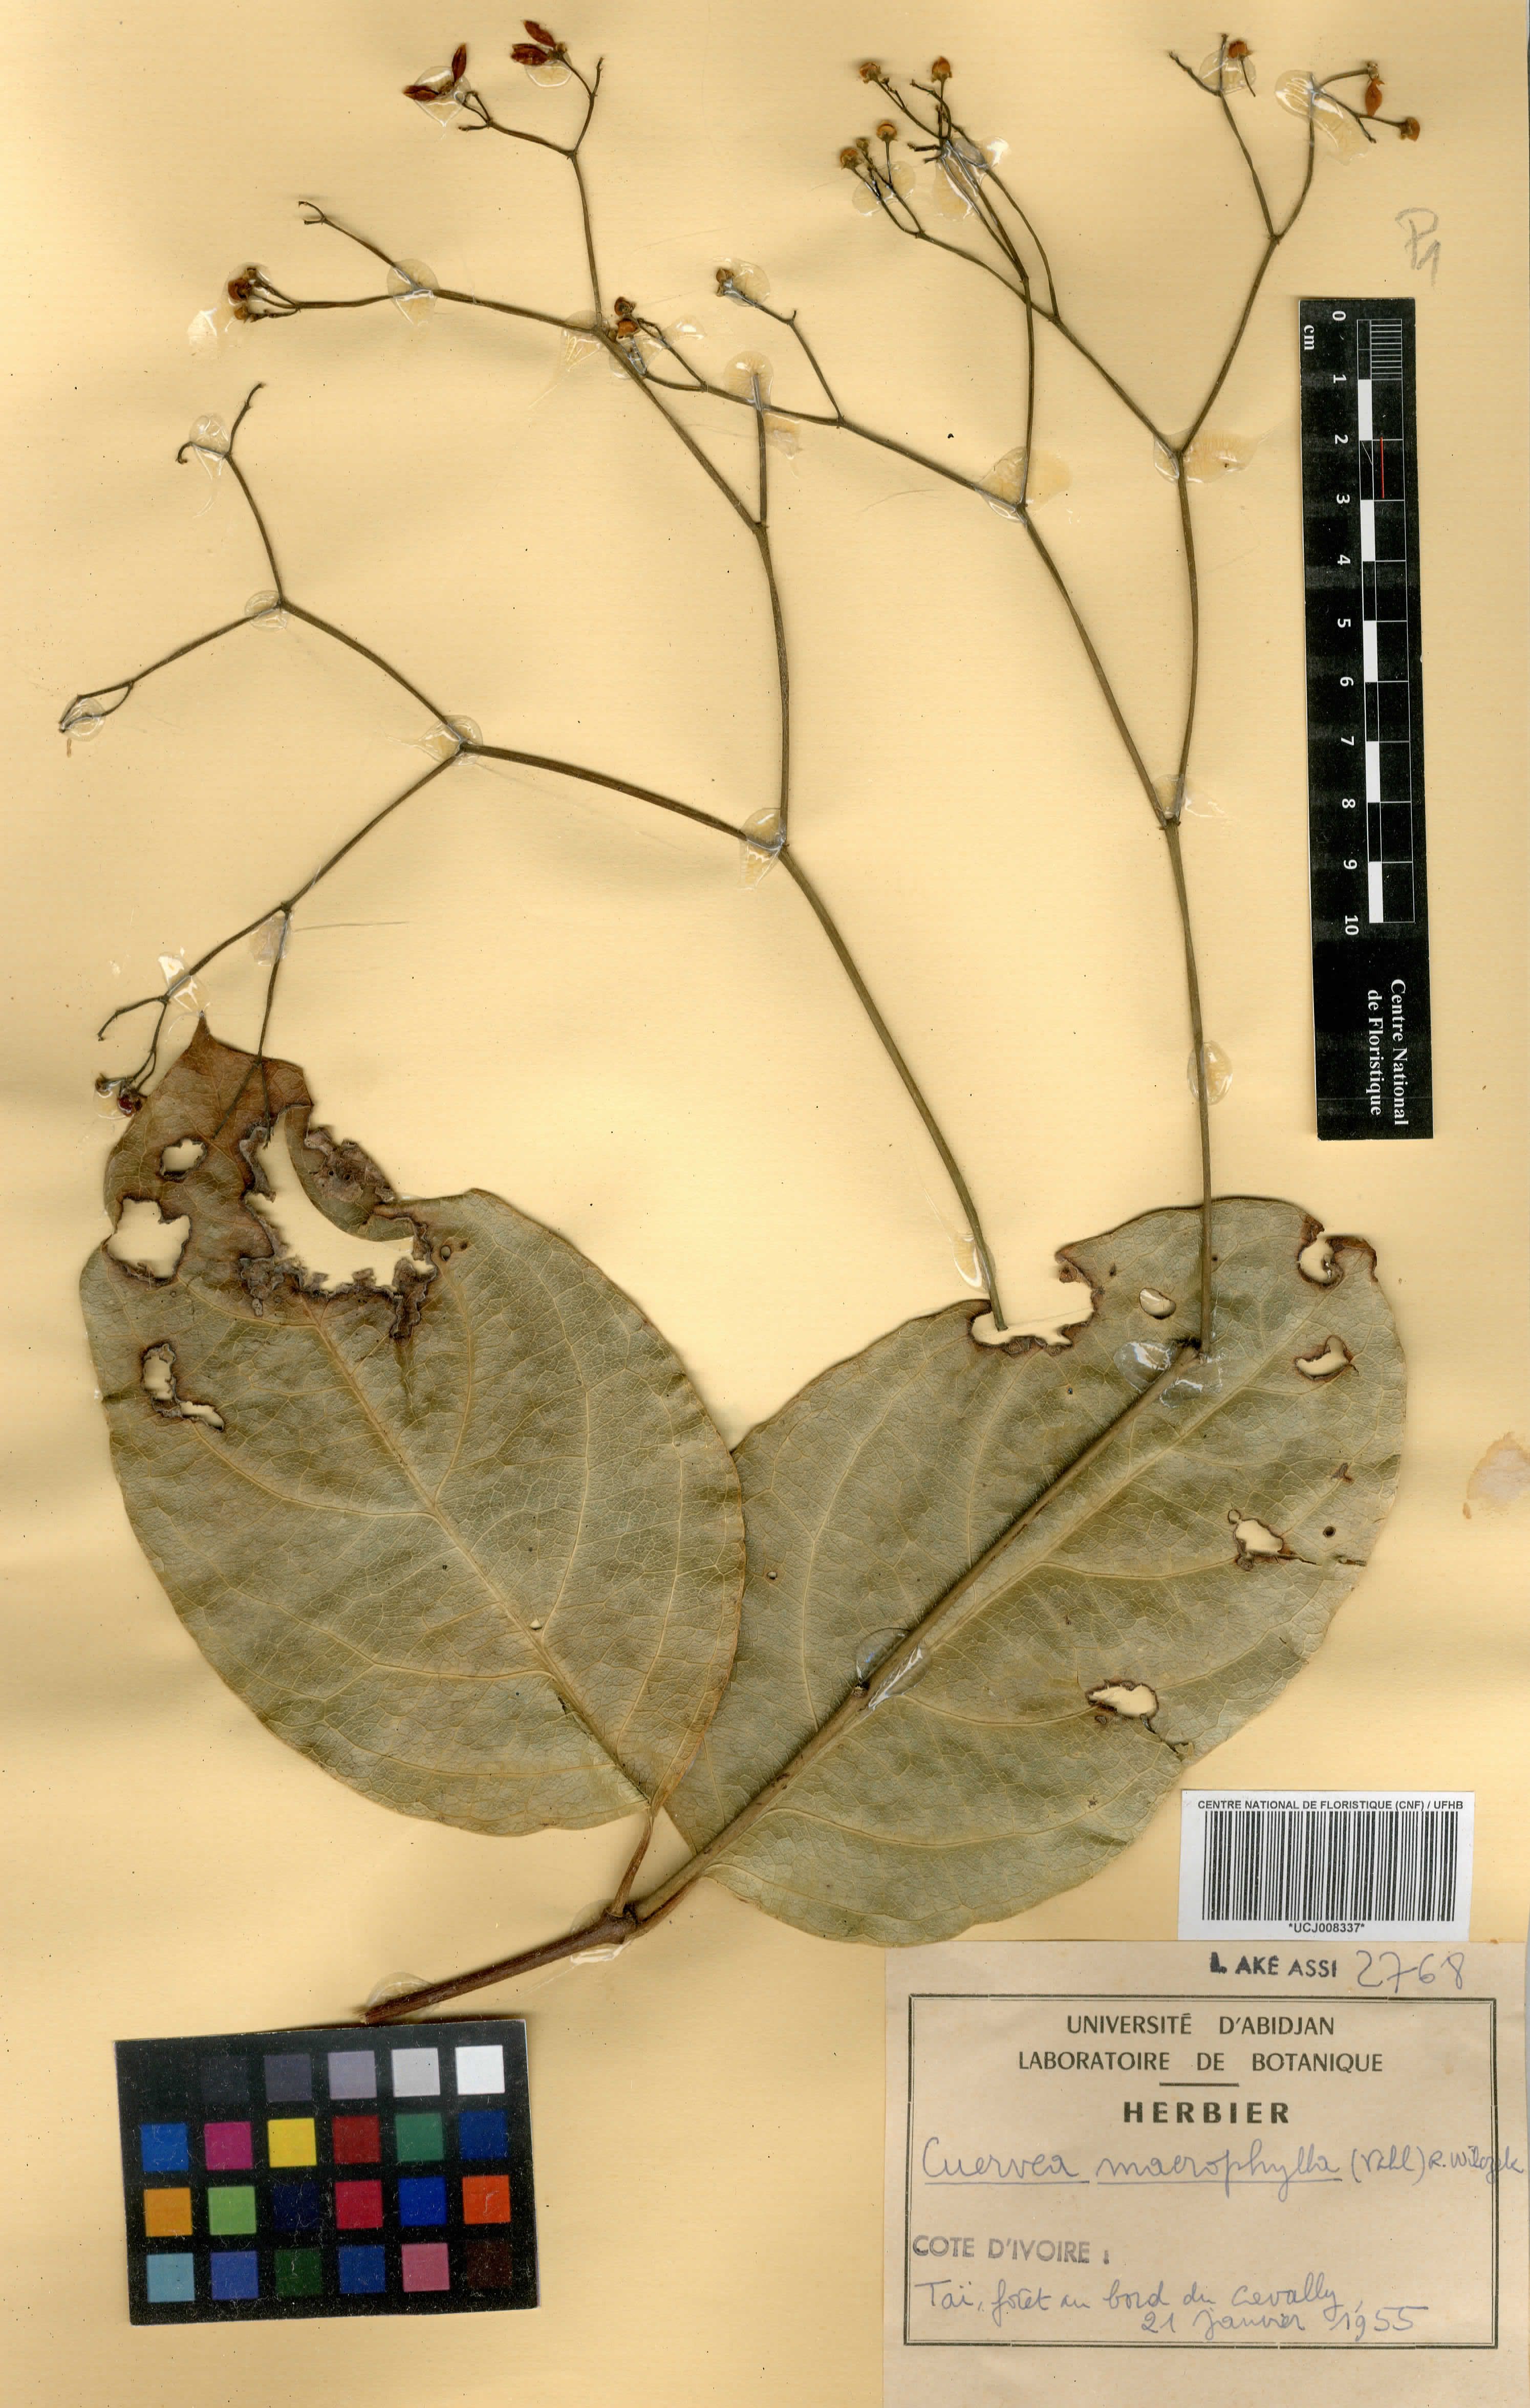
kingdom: Plantae
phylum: Tracheophyta
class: Magnoliopsida
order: Celastrales
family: Celastraceae
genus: Cuervea
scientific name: Cuervea macrophylla
